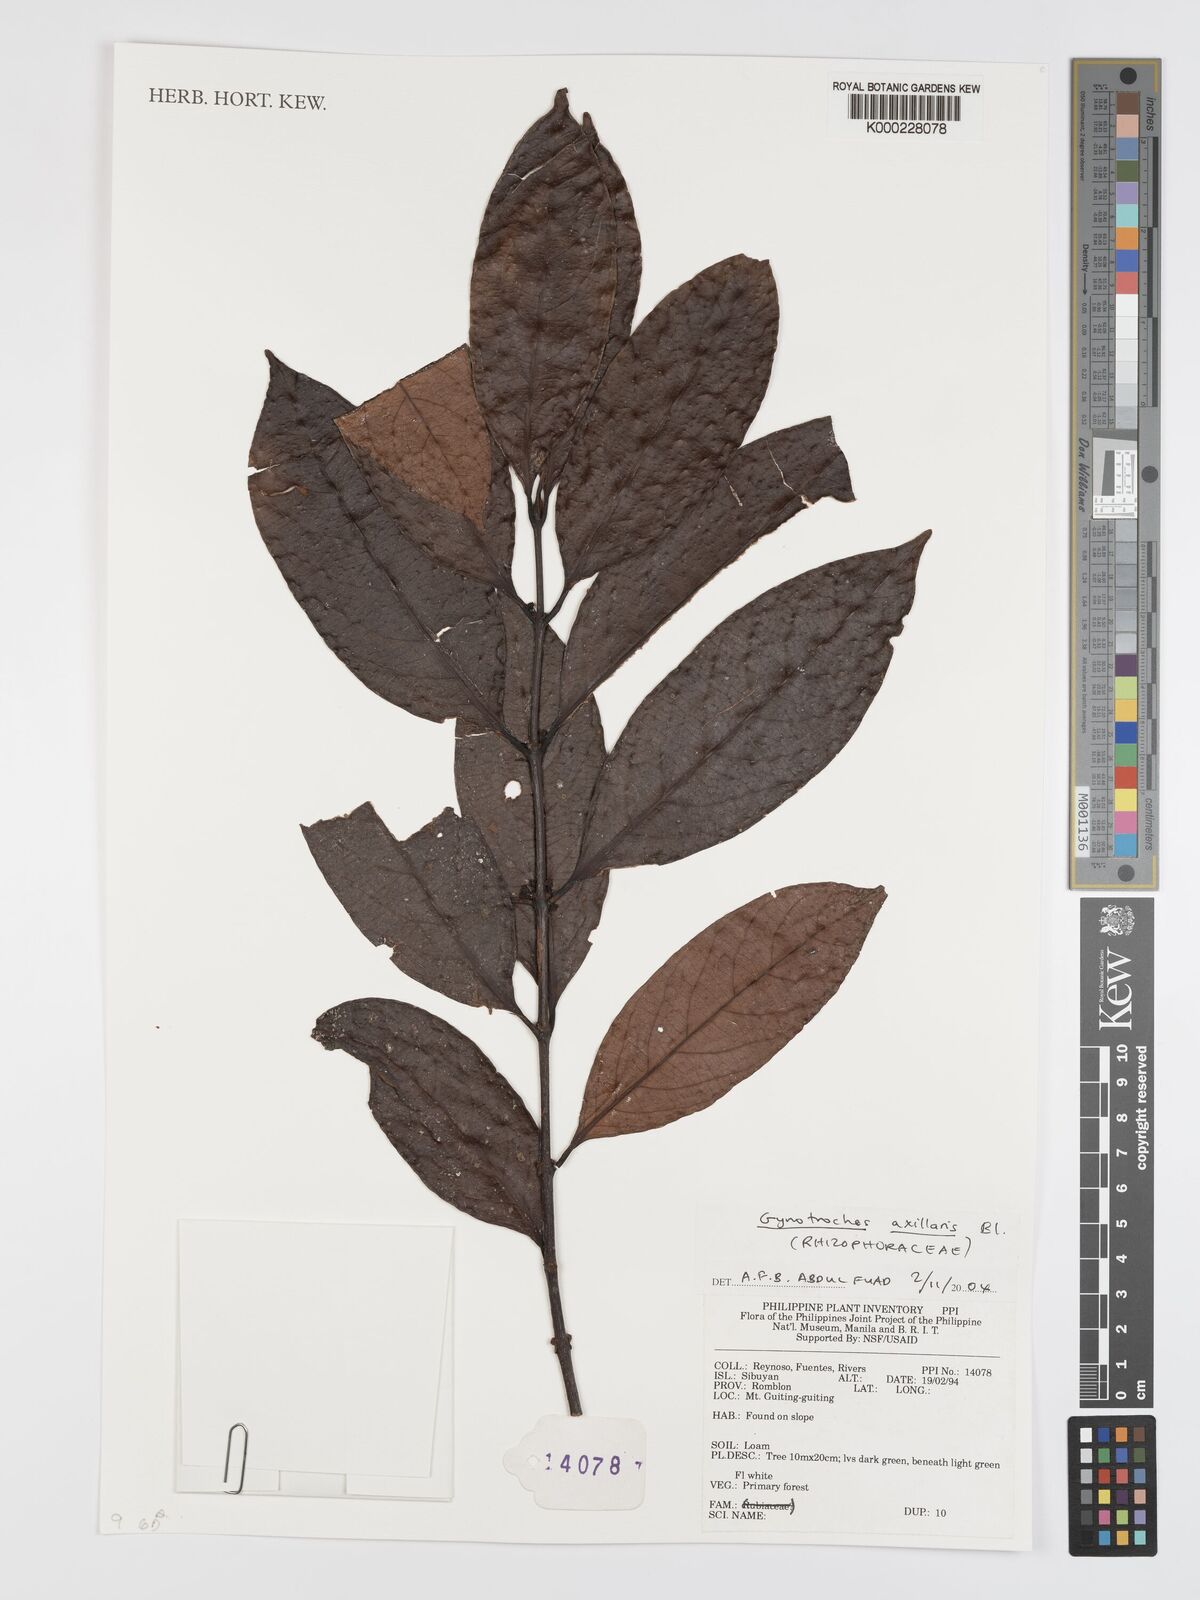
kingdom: Plantae
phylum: Tracheophyta
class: Magnoliopsida
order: Malpighiales
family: Rhizophoraceae
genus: Gynotroches
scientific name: Gynotroches axillaris
